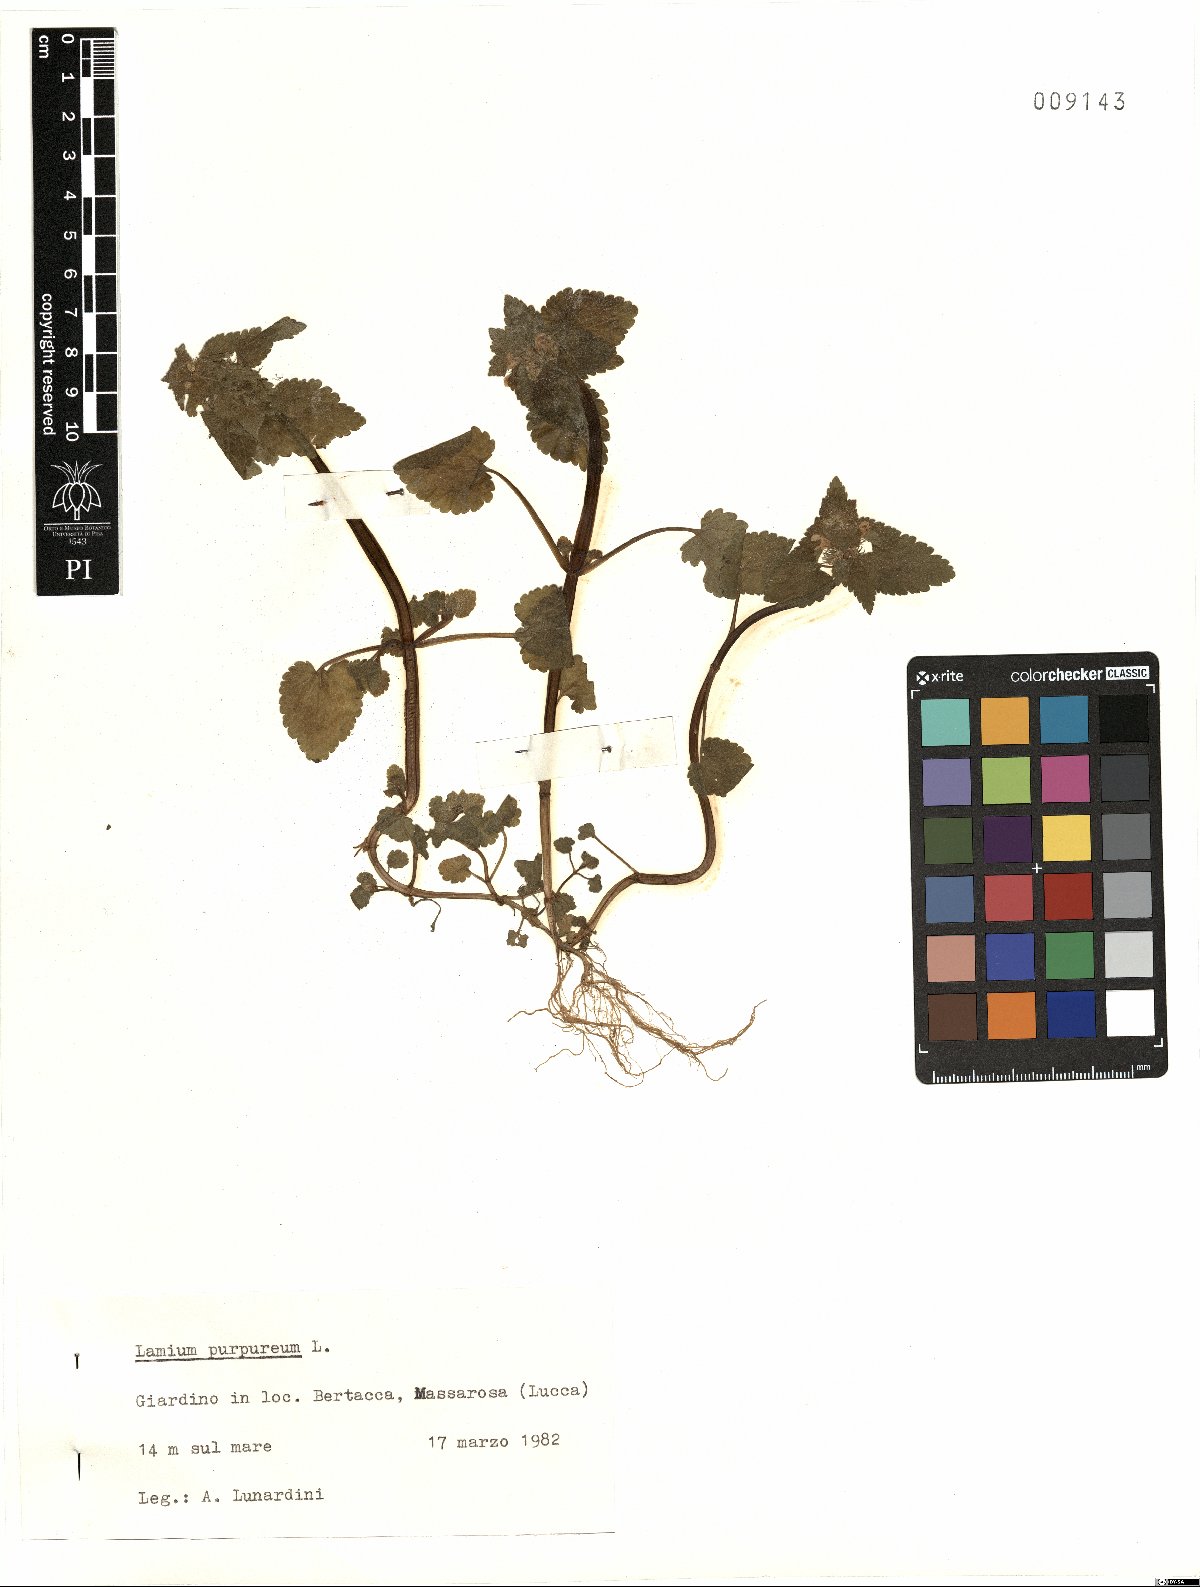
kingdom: Plantae
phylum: Tracheophyta
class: Magnoliopsida
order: Lamiales
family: Lamiaceae
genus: Lamium
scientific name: Lamium purpureum
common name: Red dead-nettle
